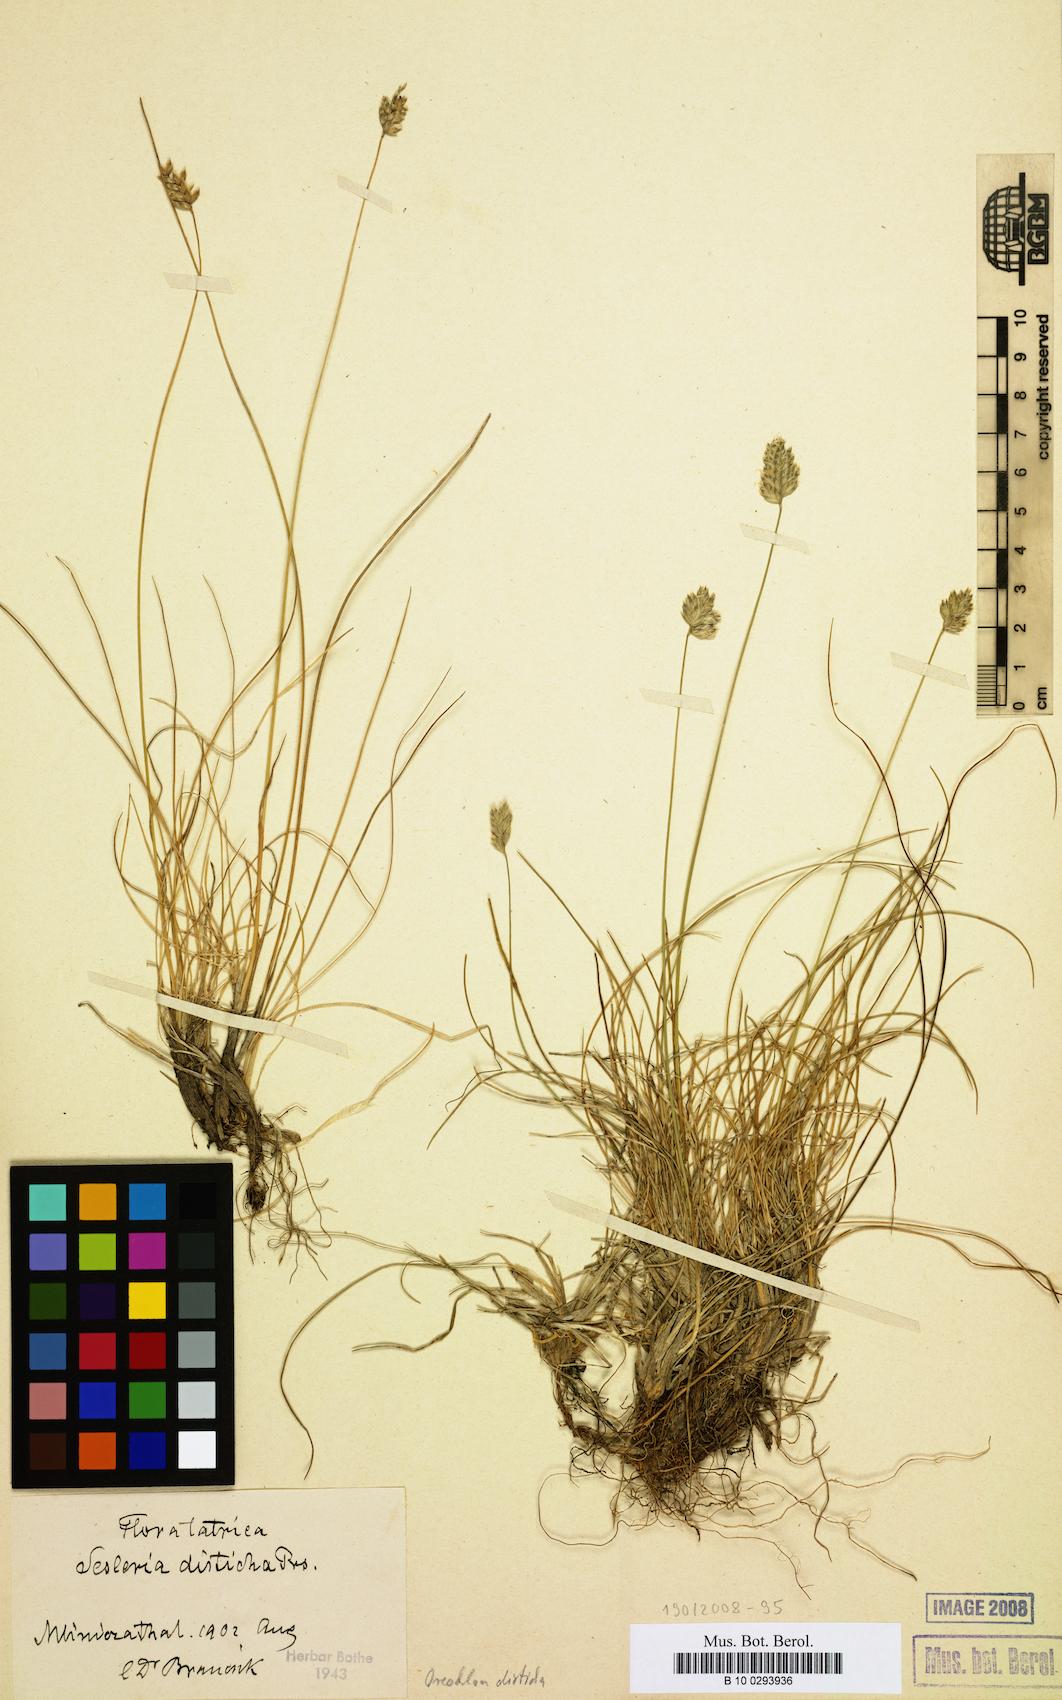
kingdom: Plantae
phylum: Tracheophyta
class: Liliopsida
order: Poales
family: Poaceae
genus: Oreochloa
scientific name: Oreochloa disticha
